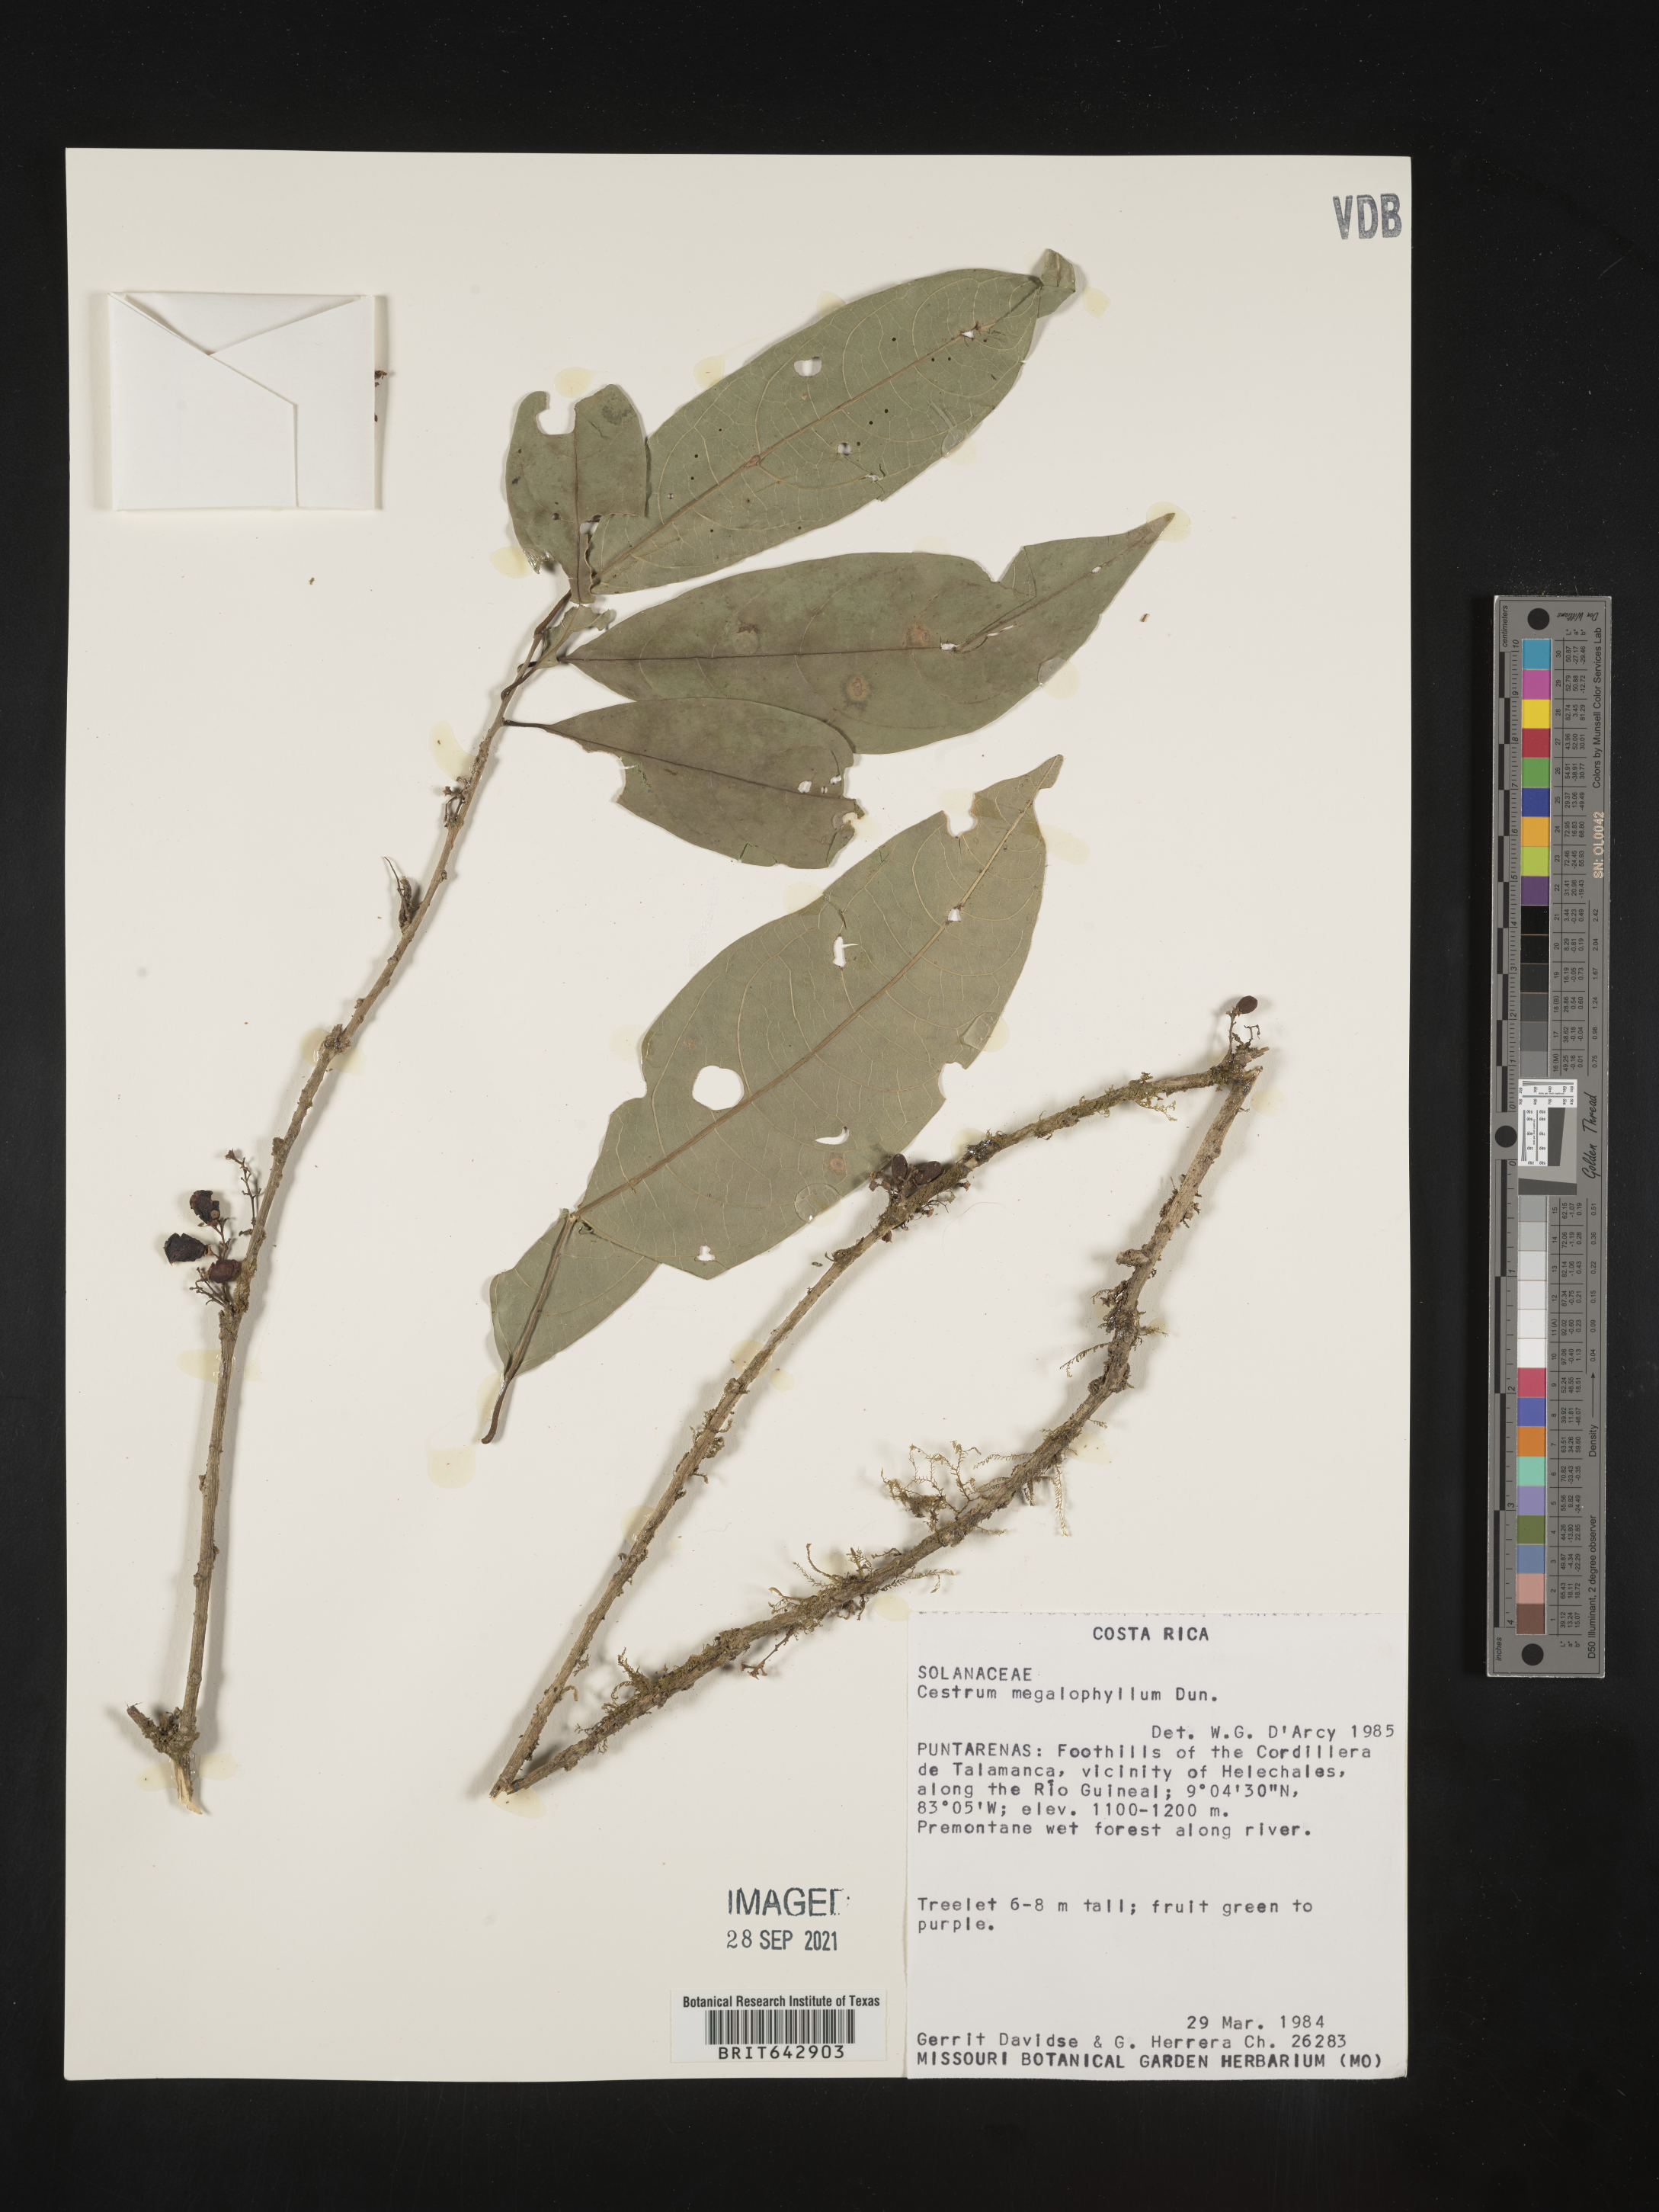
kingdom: Plantae
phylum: Tracheophyta
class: Magnoliopsida
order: Solanales
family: Solanaceae
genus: Cestrum
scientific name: Cestrum
